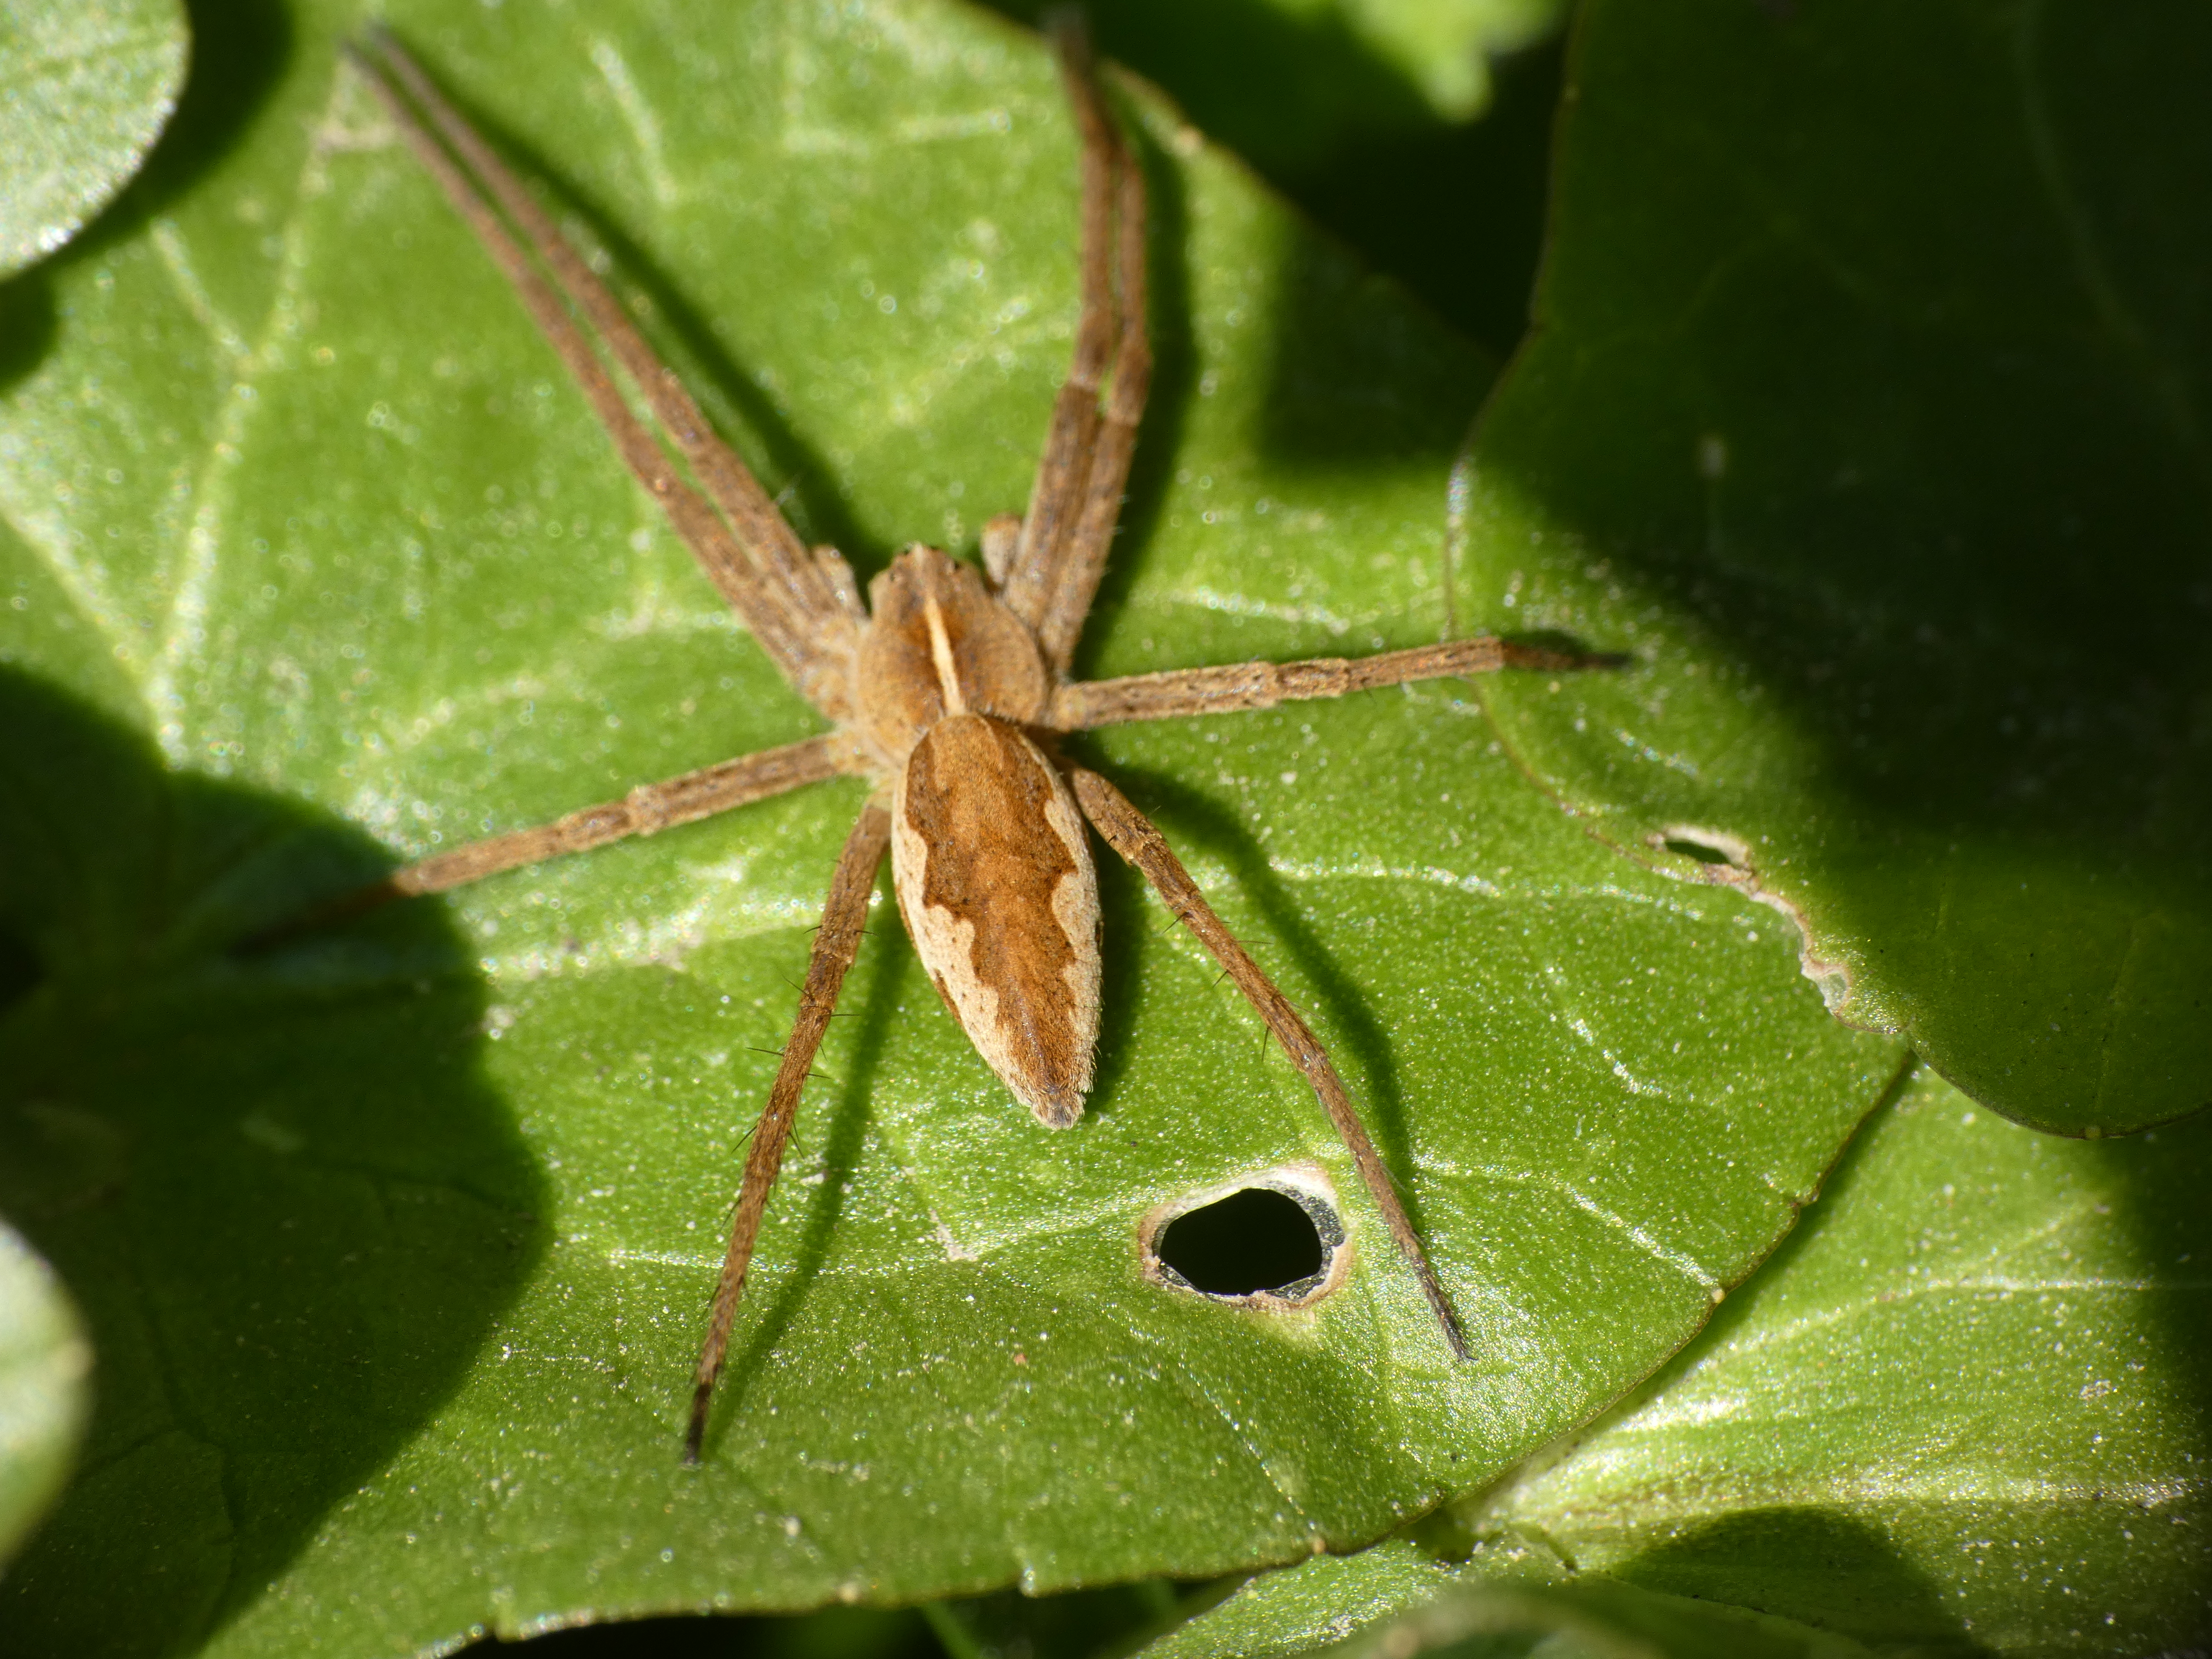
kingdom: Animalia
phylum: Arthropoda
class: Arachnida
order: Araneae
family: Pisauridae
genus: Pisaura
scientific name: Pisaura mirabilis
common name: Almindelig rovedderkop
